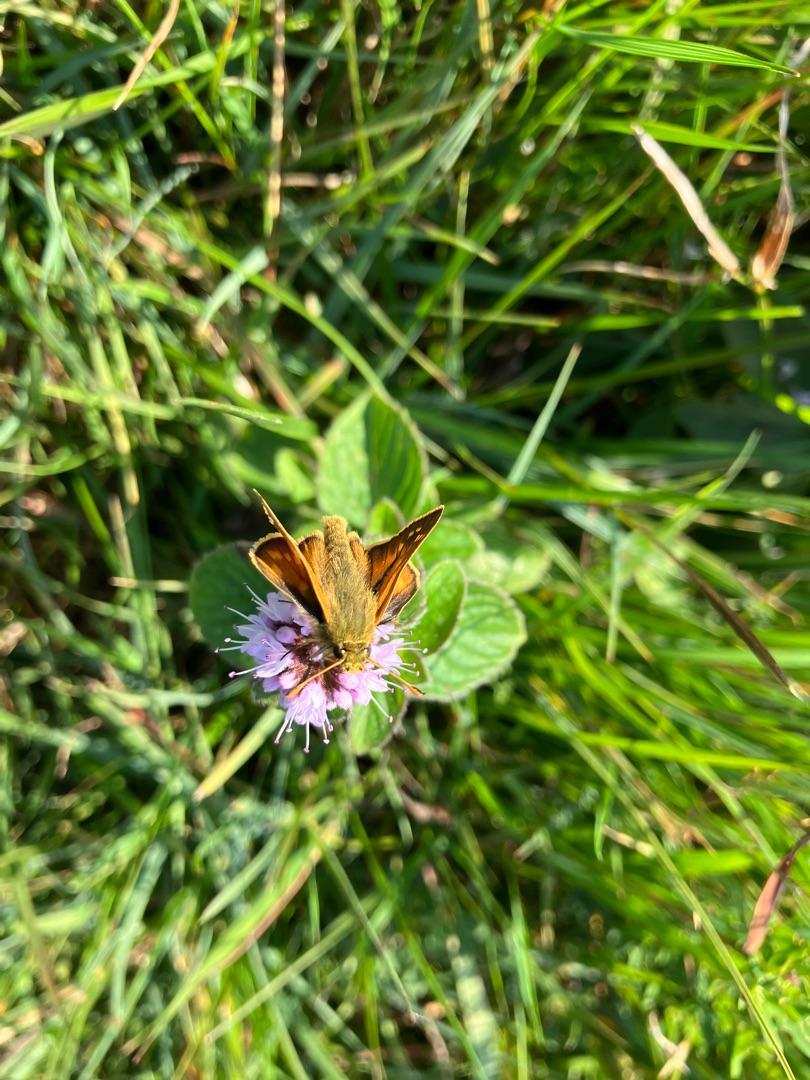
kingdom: Animalia
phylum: Arthropoda
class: Insecta
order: Lepidoptera
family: Hesperiidae
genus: Ochlodes
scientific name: Ochlodes venata
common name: Stor bredpande
